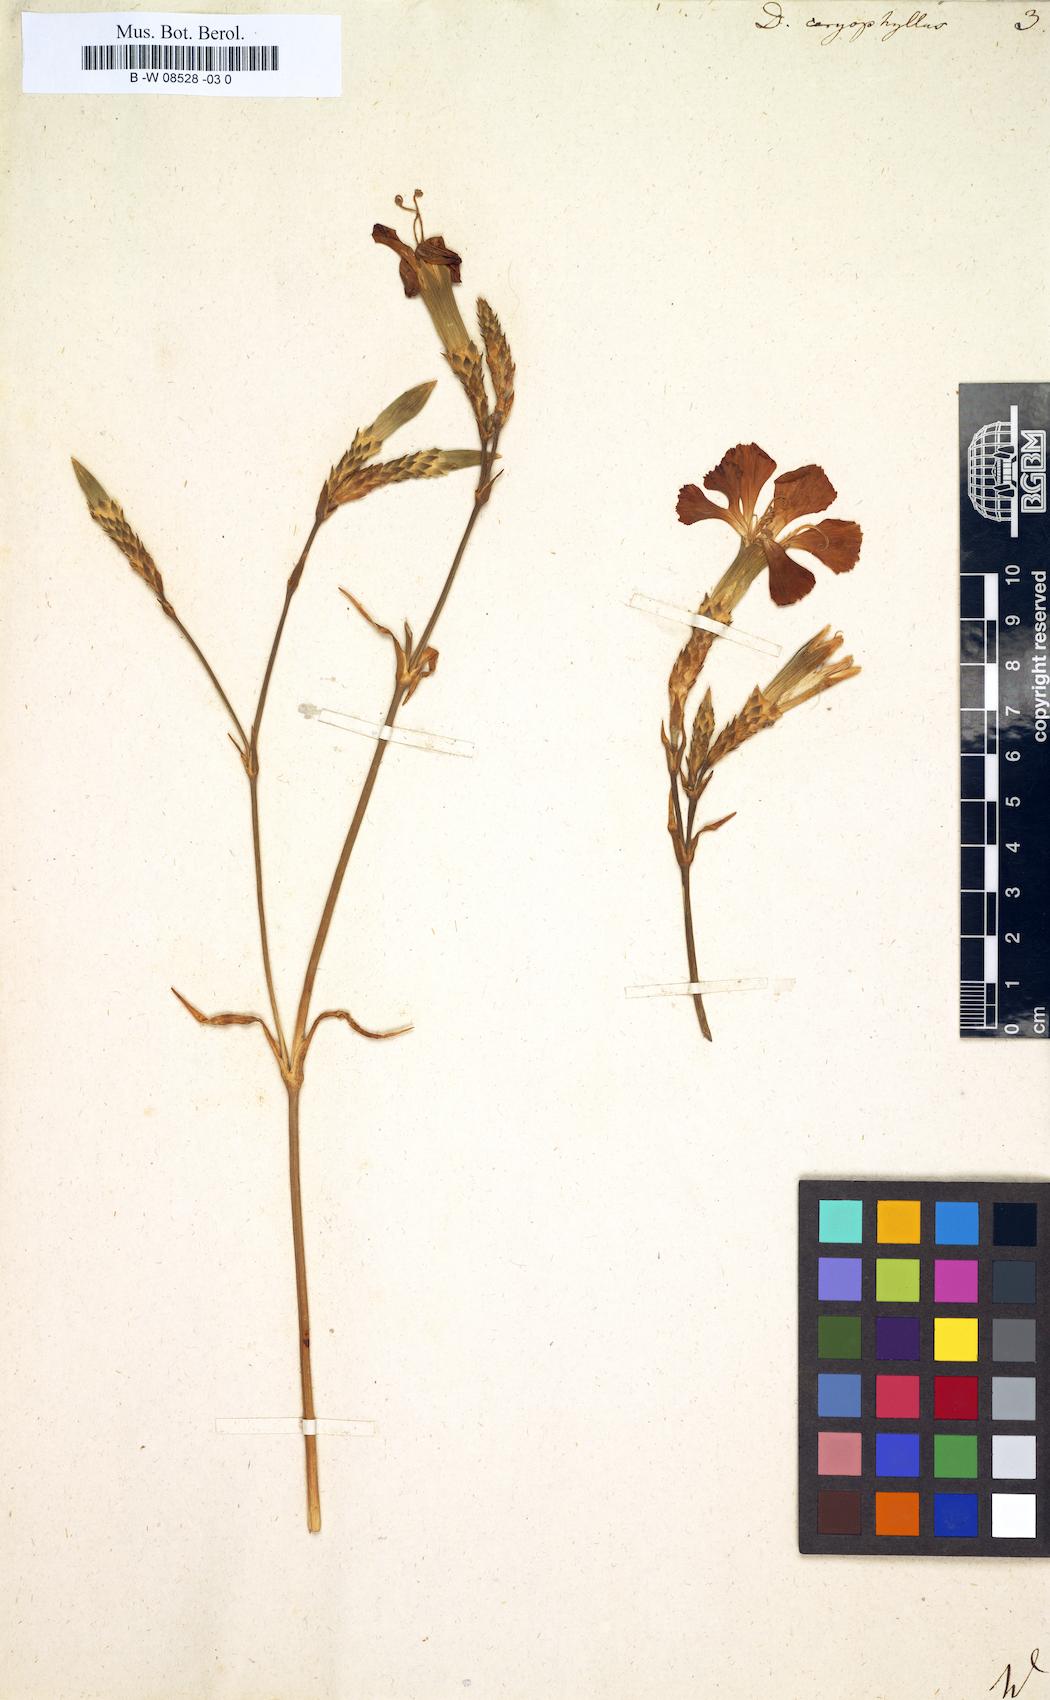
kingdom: Plantae
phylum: Tracheophyta
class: Magnoliopsida
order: Caryophyllales
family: Caryophyllaceae
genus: Dianthus
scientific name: Dianthus caryophyllus
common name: Clove pink
